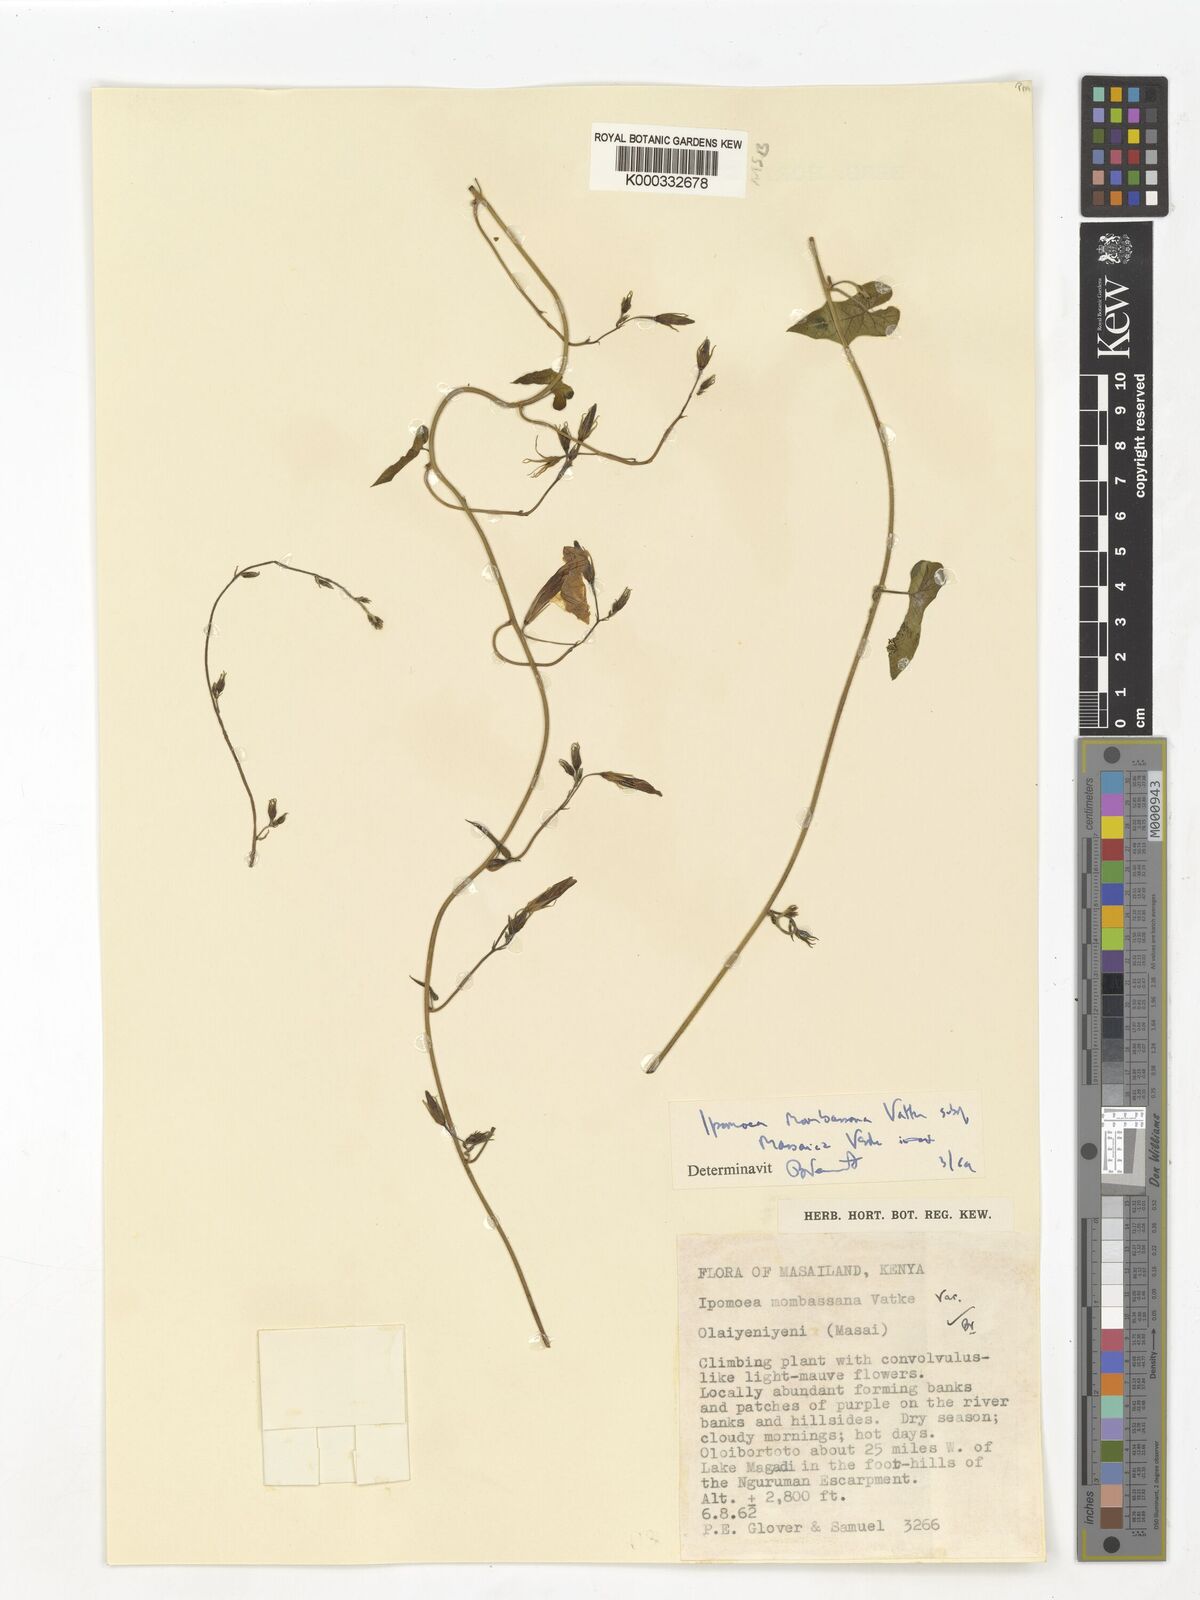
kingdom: Plantae
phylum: Tracheophyta
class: Magnoliopsida
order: Solanales
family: Convolvulaceae
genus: Ipomoea
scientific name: Ipomoea mombassana
